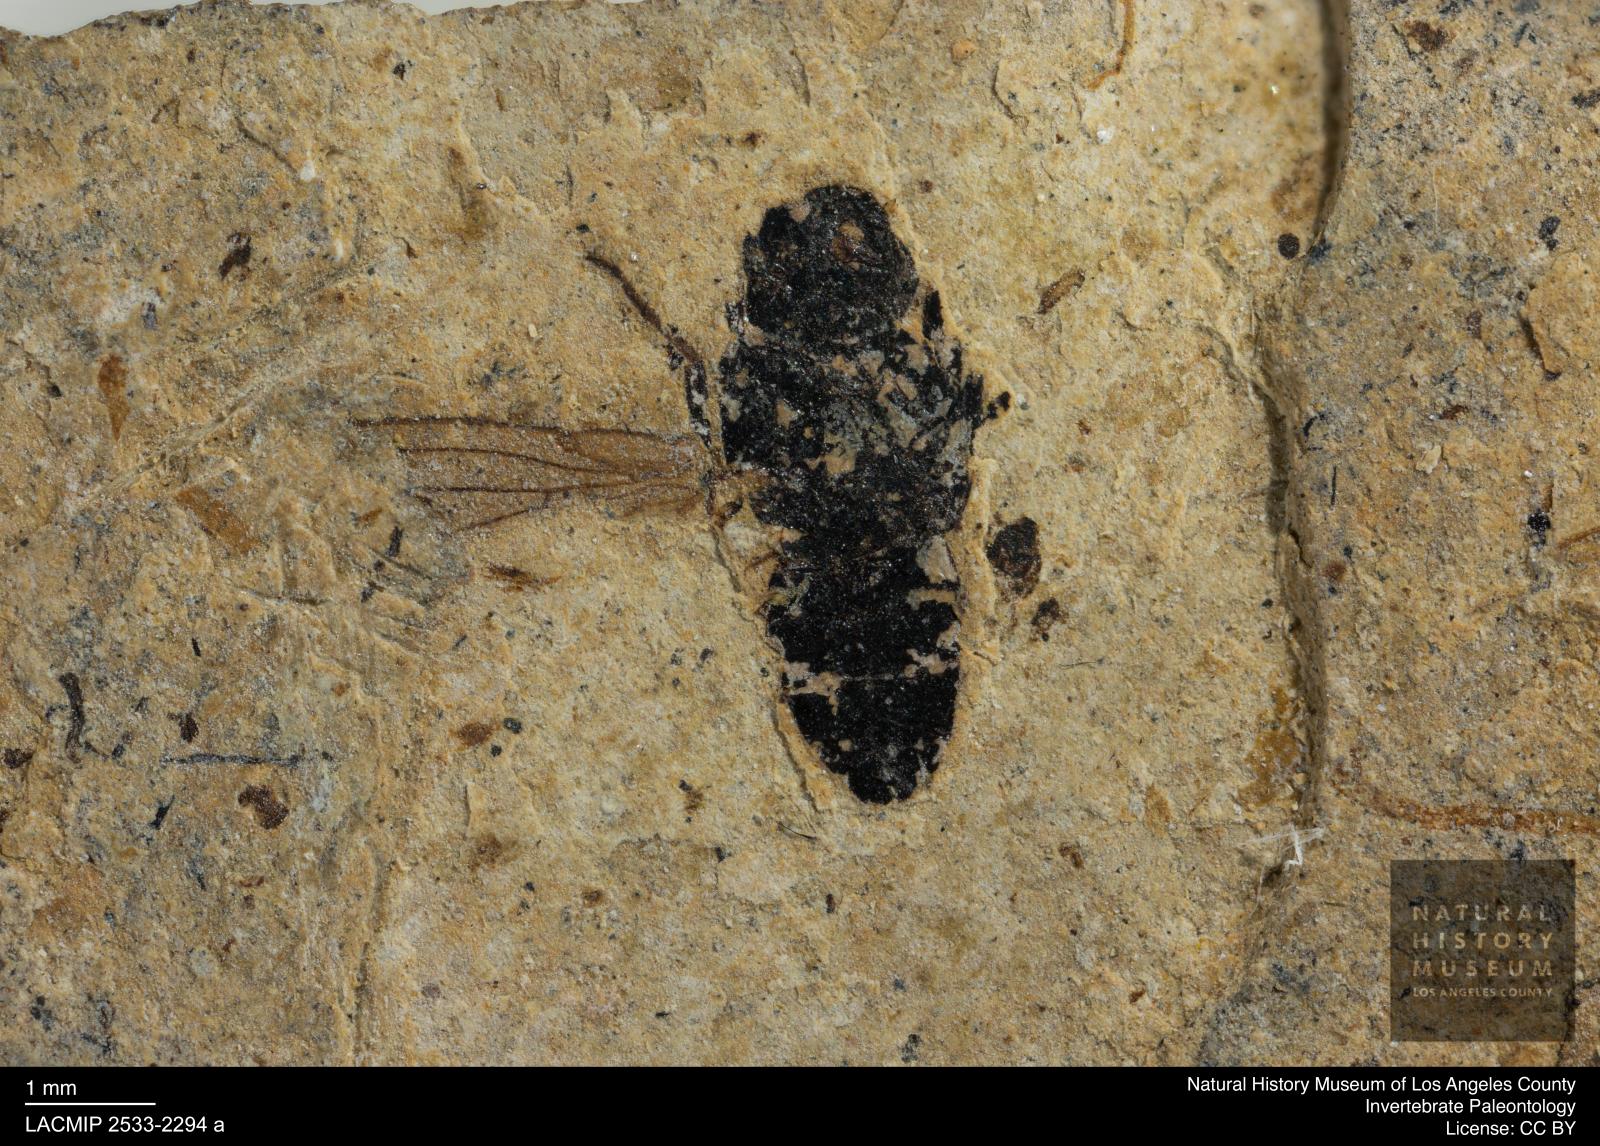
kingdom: Animalia
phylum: Arthropoda
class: Insecta
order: Diptera
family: Heleomyzidae
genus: Heleomyza
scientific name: Heleomyza Leria bauckhorni
